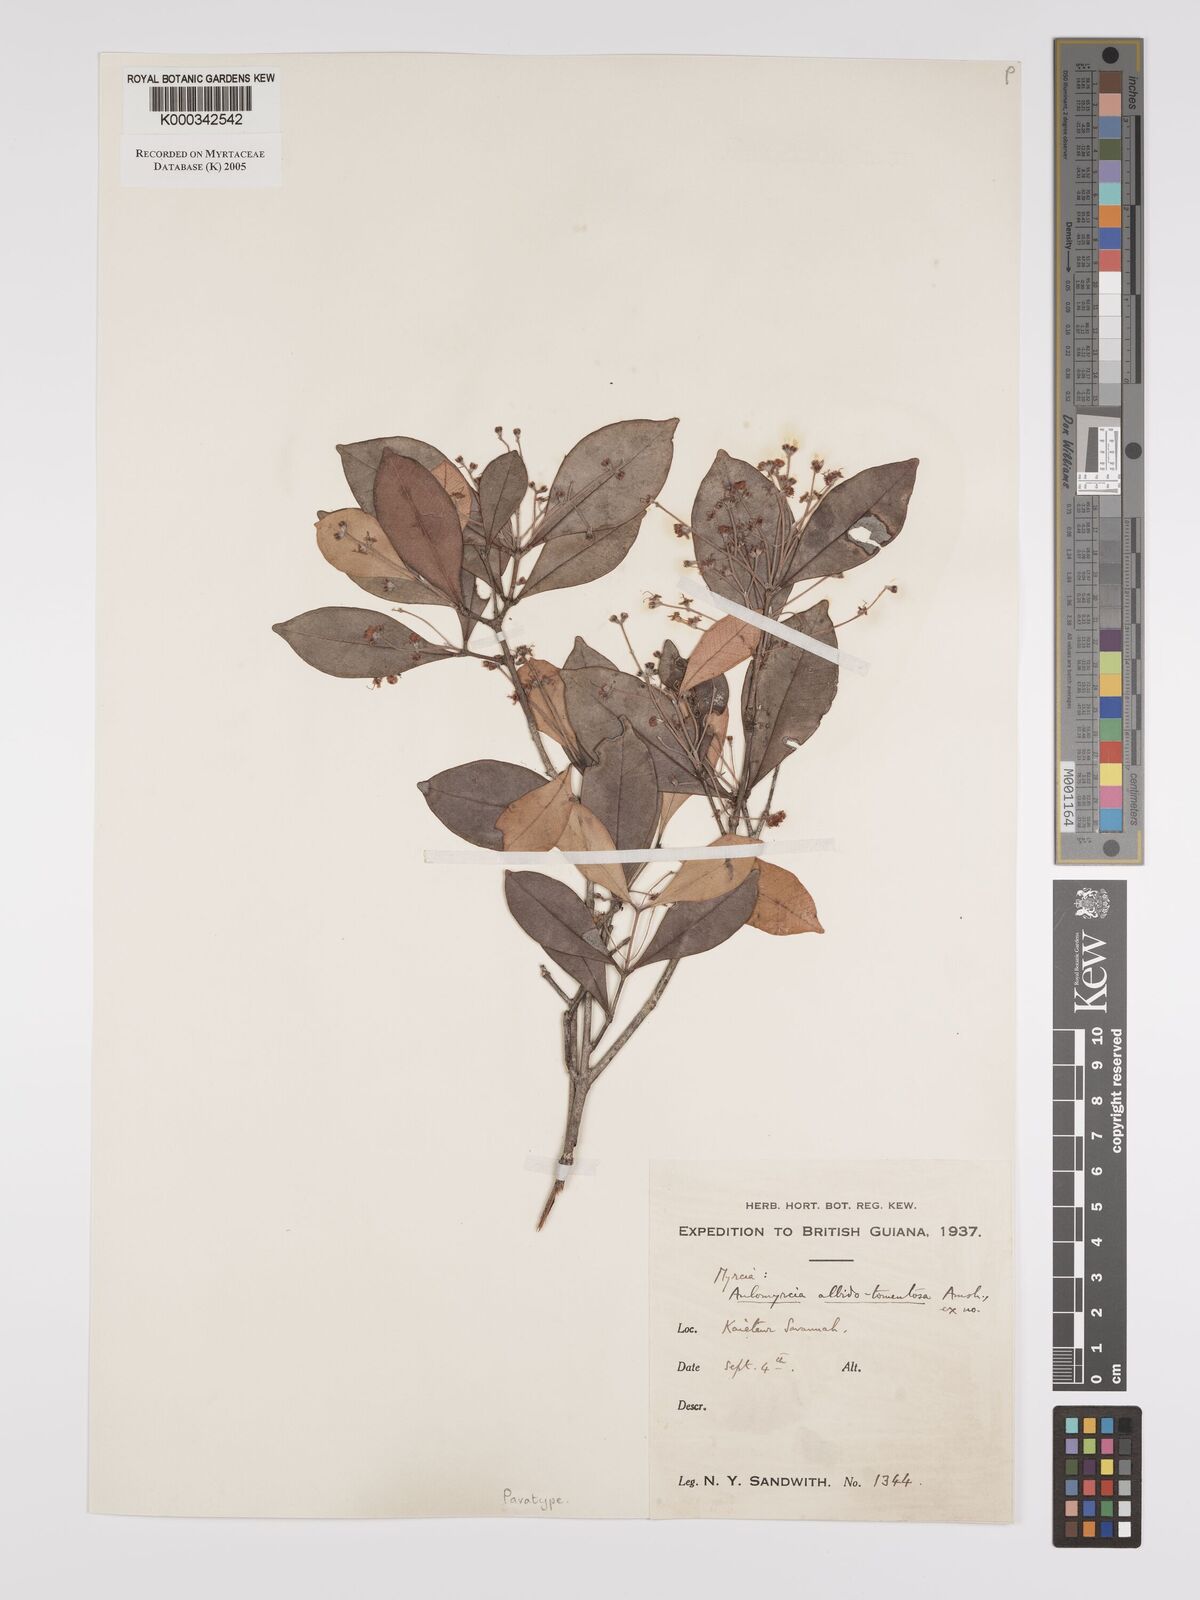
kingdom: Plantae
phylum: Tracheophyta
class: Magnoliopsida
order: Myrtales
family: Myrtaceae
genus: Myrcia
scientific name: Myrcia albidotomentosa
